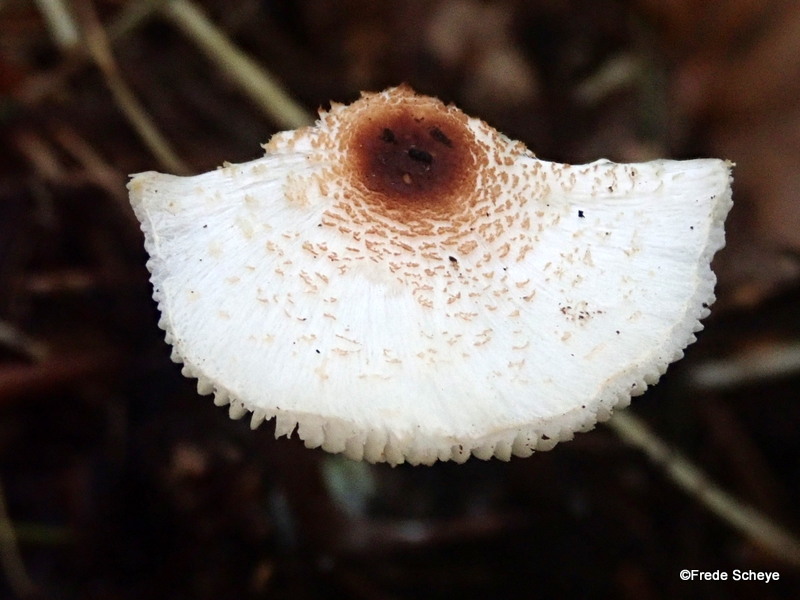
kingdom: Fungi
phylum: Basidiomycota
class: Agaricomycetes
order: Agaricales
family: Agaricaceae
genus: Lepiota
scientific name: Lepiota cristata
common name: stinkende parasolhat
